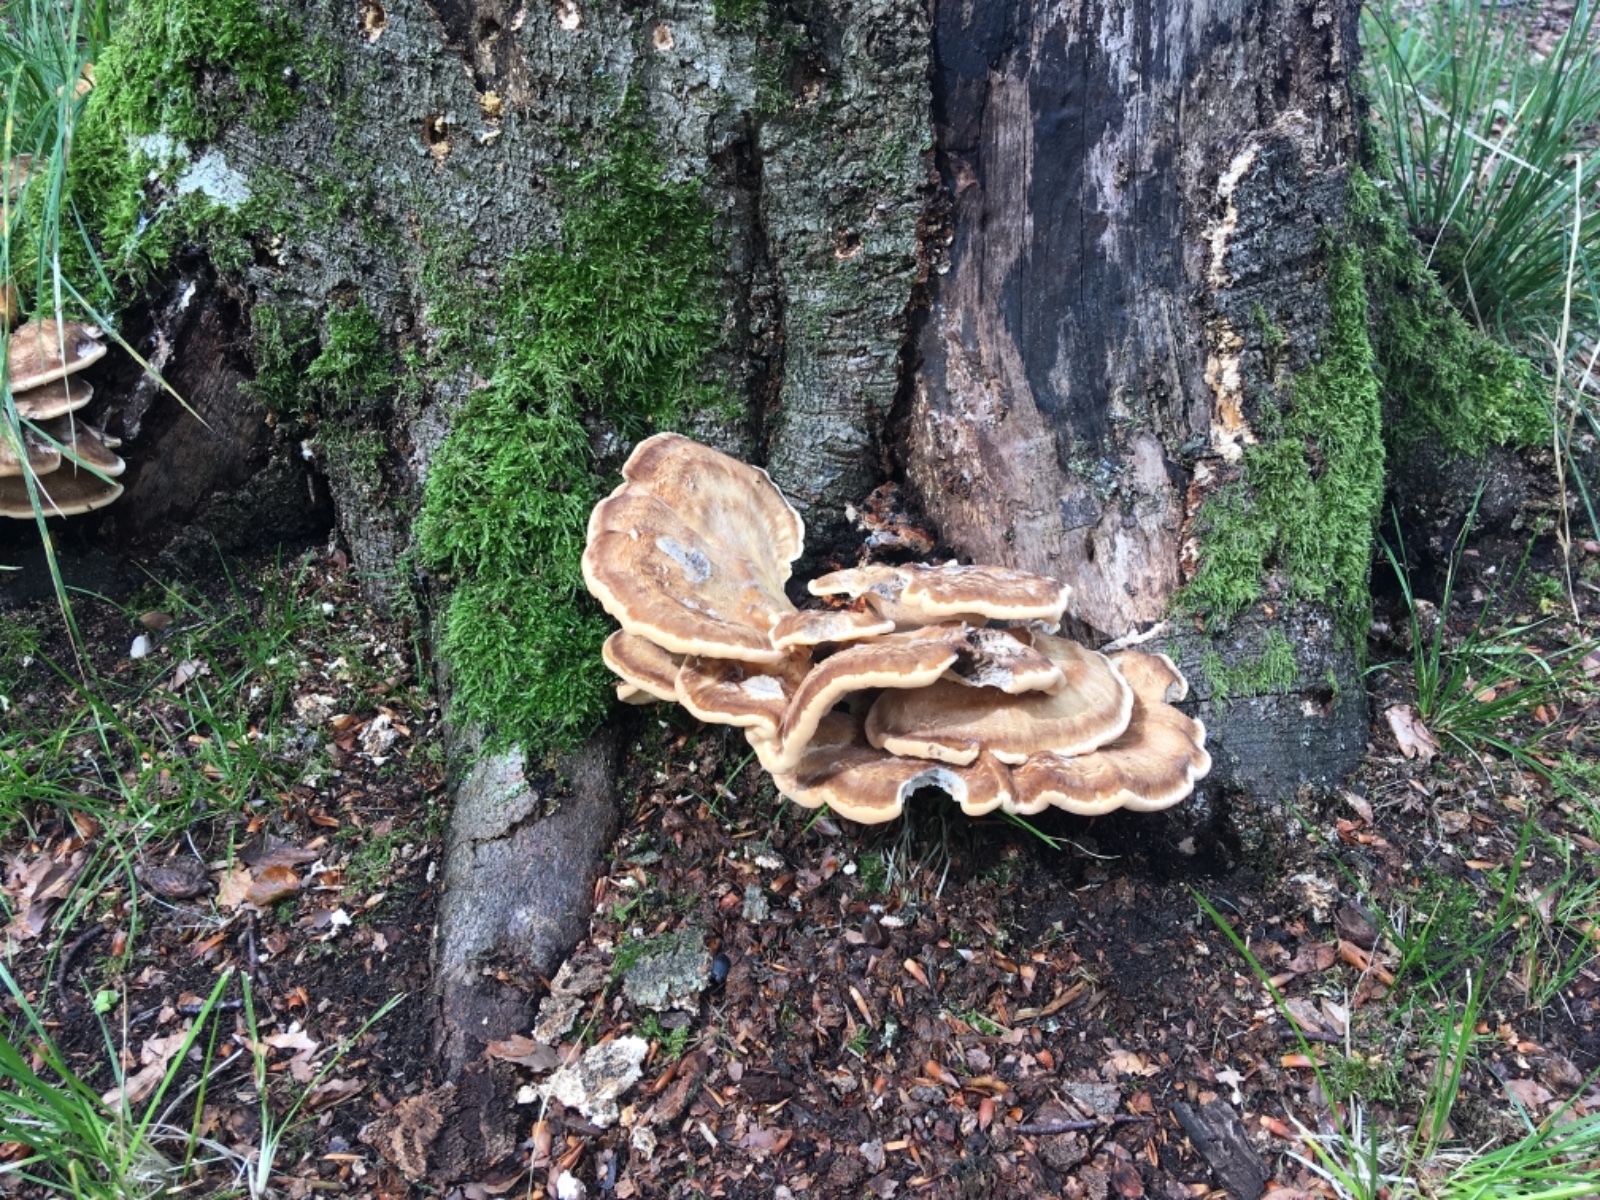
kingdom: Fungi
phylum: Basidiomycota
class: Agaricomycetes
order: Polyporales
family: Meripilaceae
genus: Meripilus
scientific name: Meripilus giganteus
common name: kæmpeporesvamp
